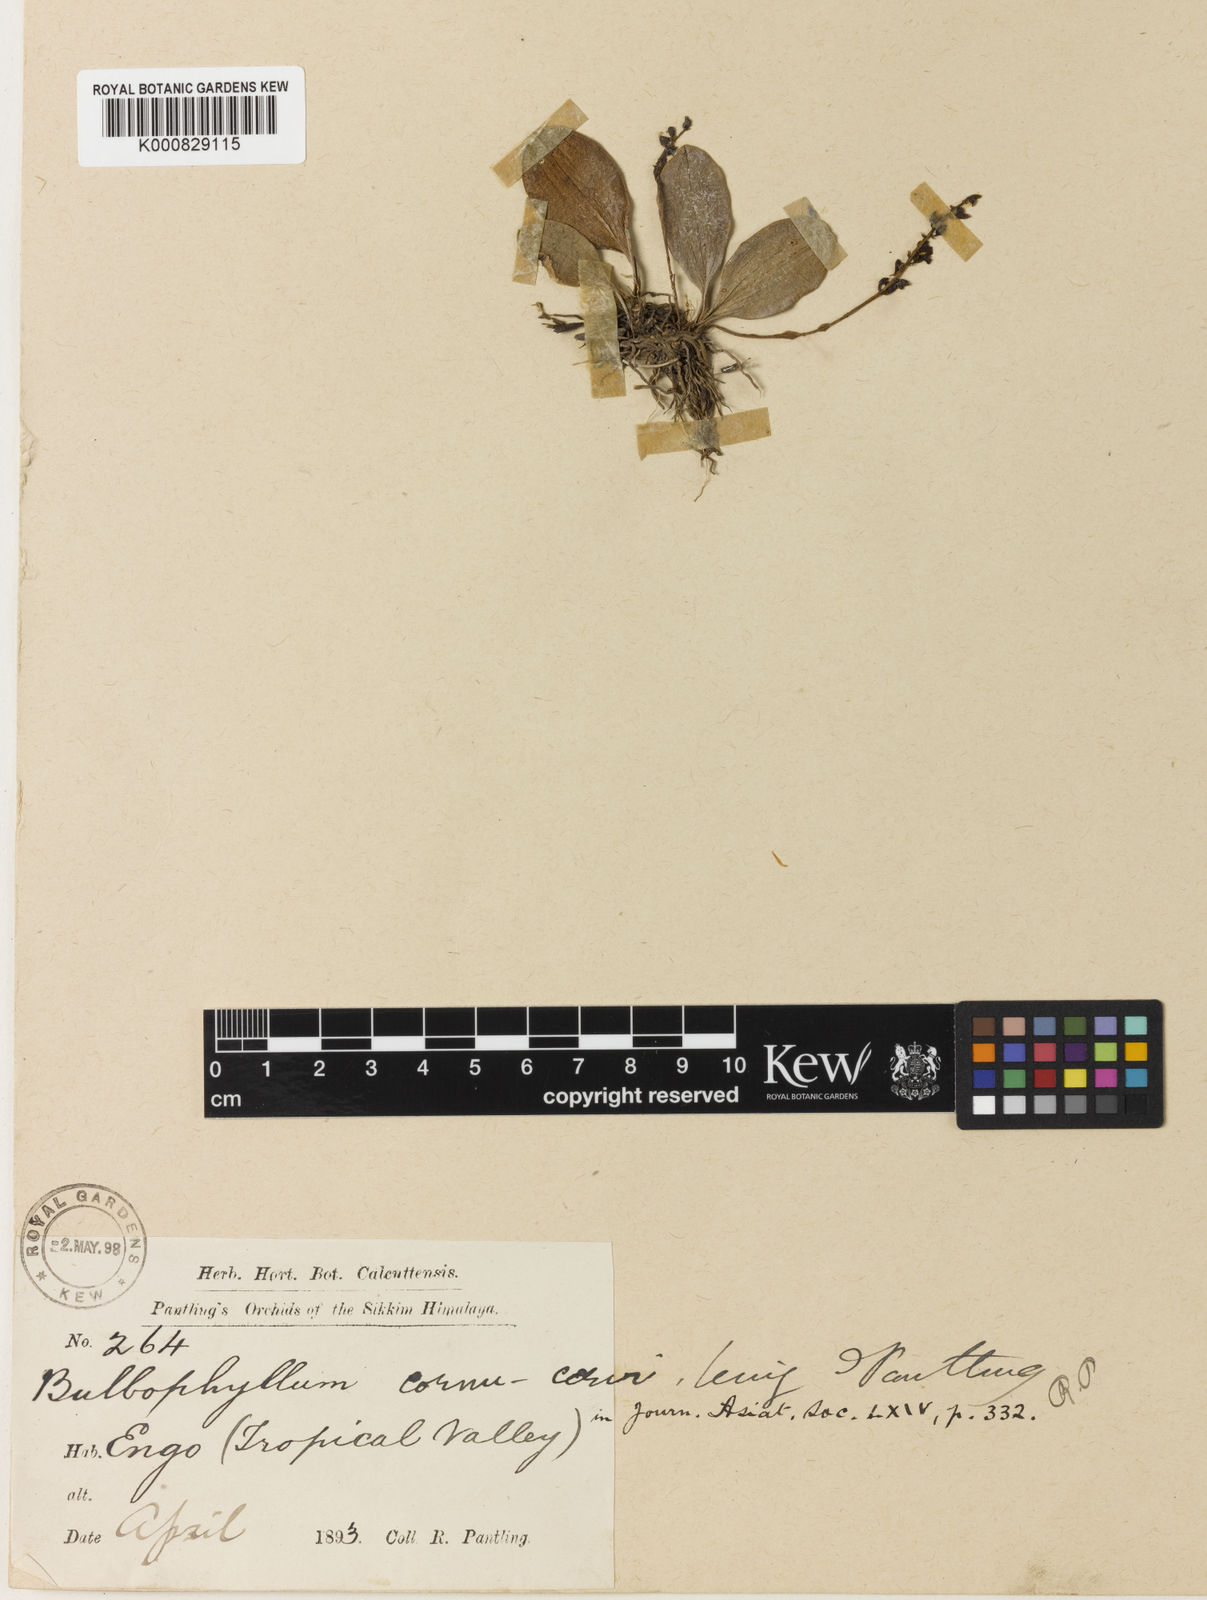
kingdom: Plantae
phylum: Tracheophyta
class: Liliopsida
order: Asparagales
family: Orchidaceae
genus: Bulbophyllum
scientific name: Bulbophyllum cornu-cervi
